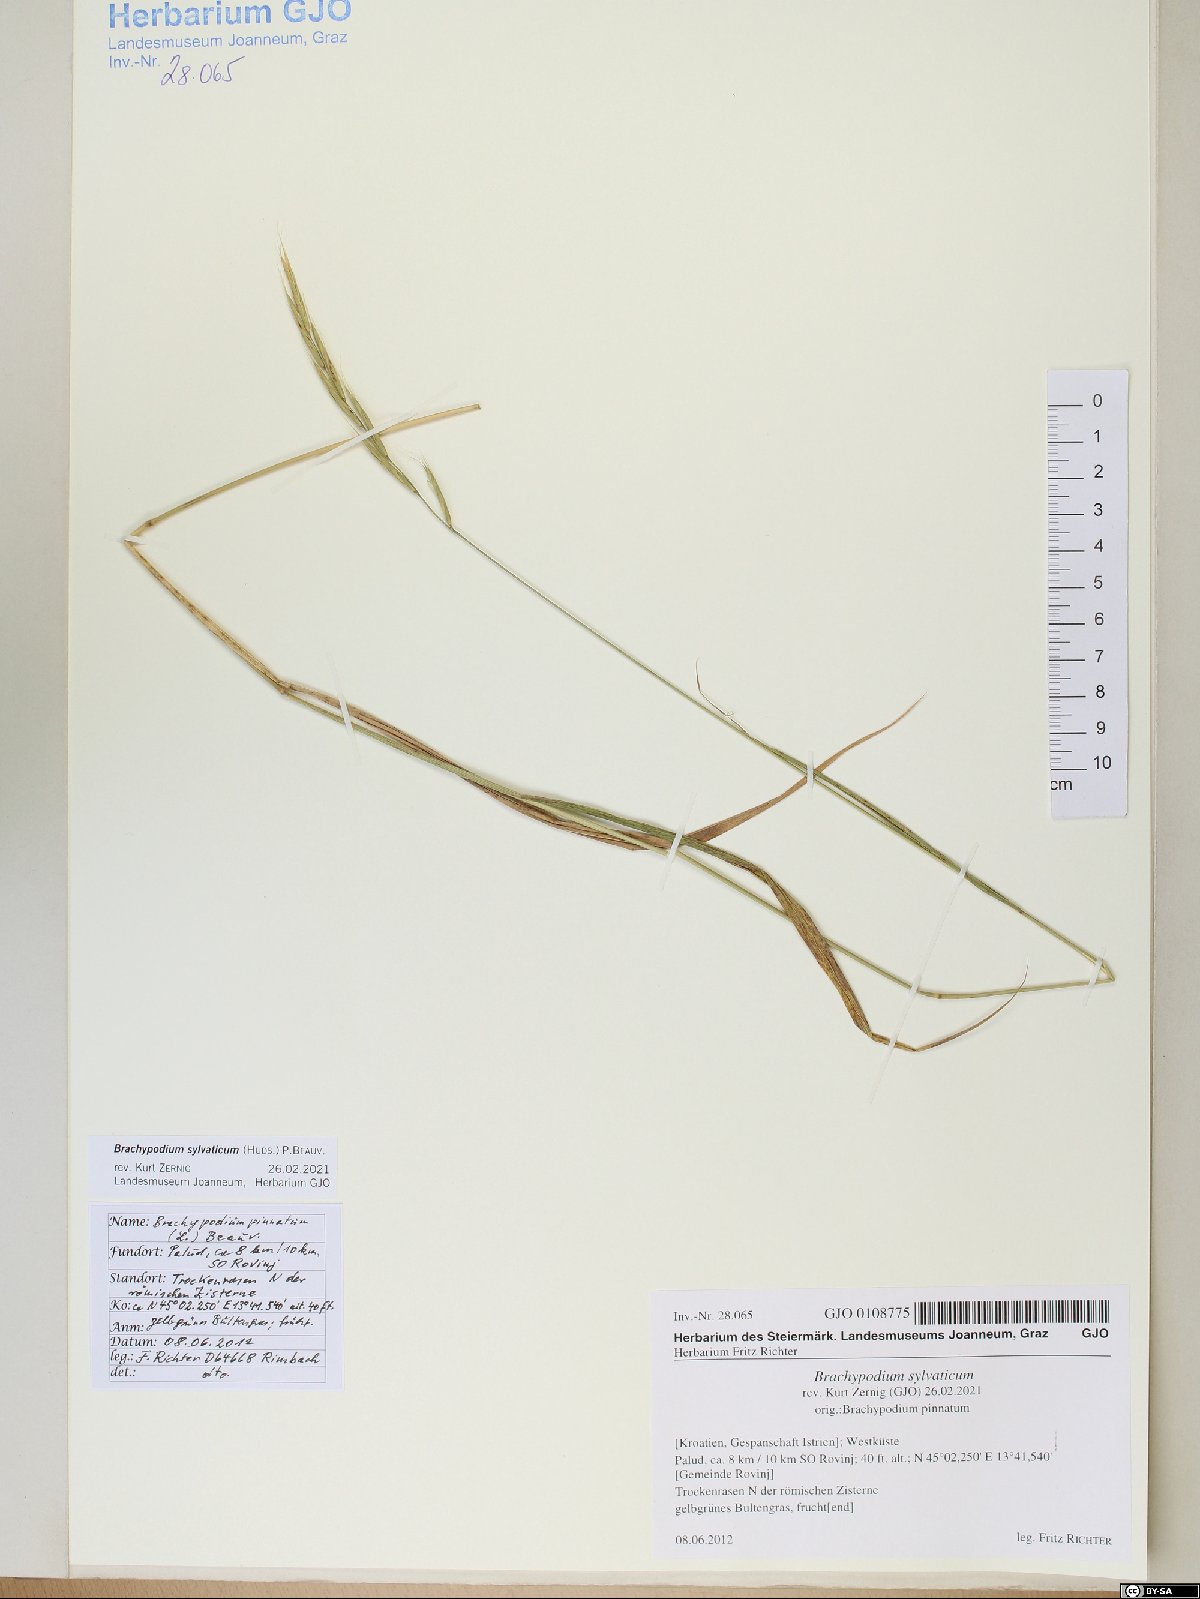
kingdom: Plantae
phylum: Tracheophyta
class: Liliopsida
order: Poales
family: Poaceae
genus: Brachypodium
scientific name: Brachypodium sylvaticum
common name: False-brome
